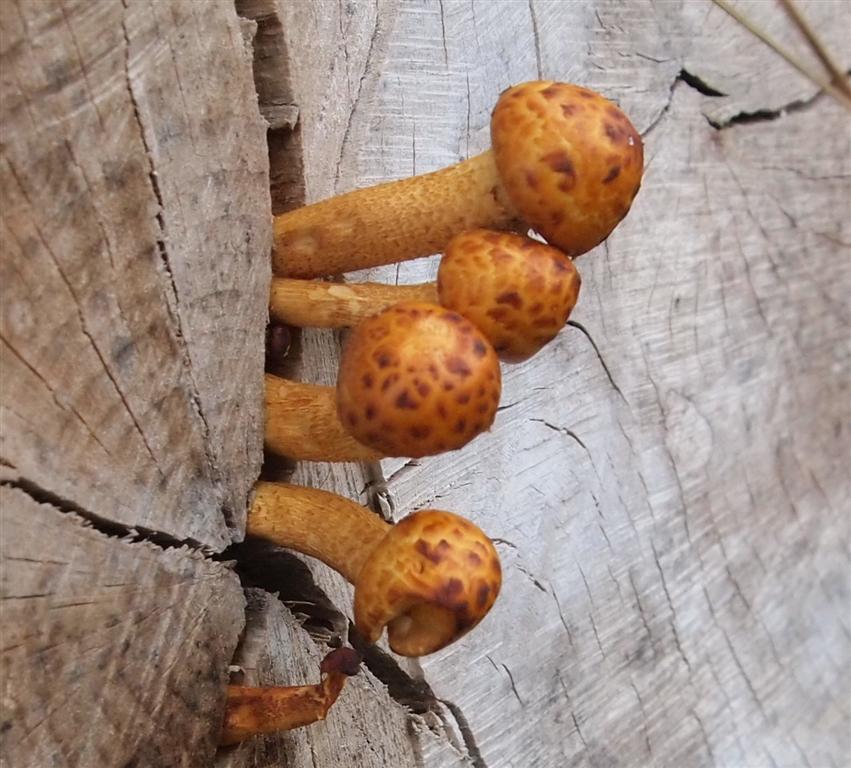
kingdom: Fungi
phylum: Basidiomycota
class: Agaricomycetes
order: Agaricales
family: Strophariaceae
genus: Pholiota
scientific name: Pholiota adiposa
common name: højtsiddende skælhat
